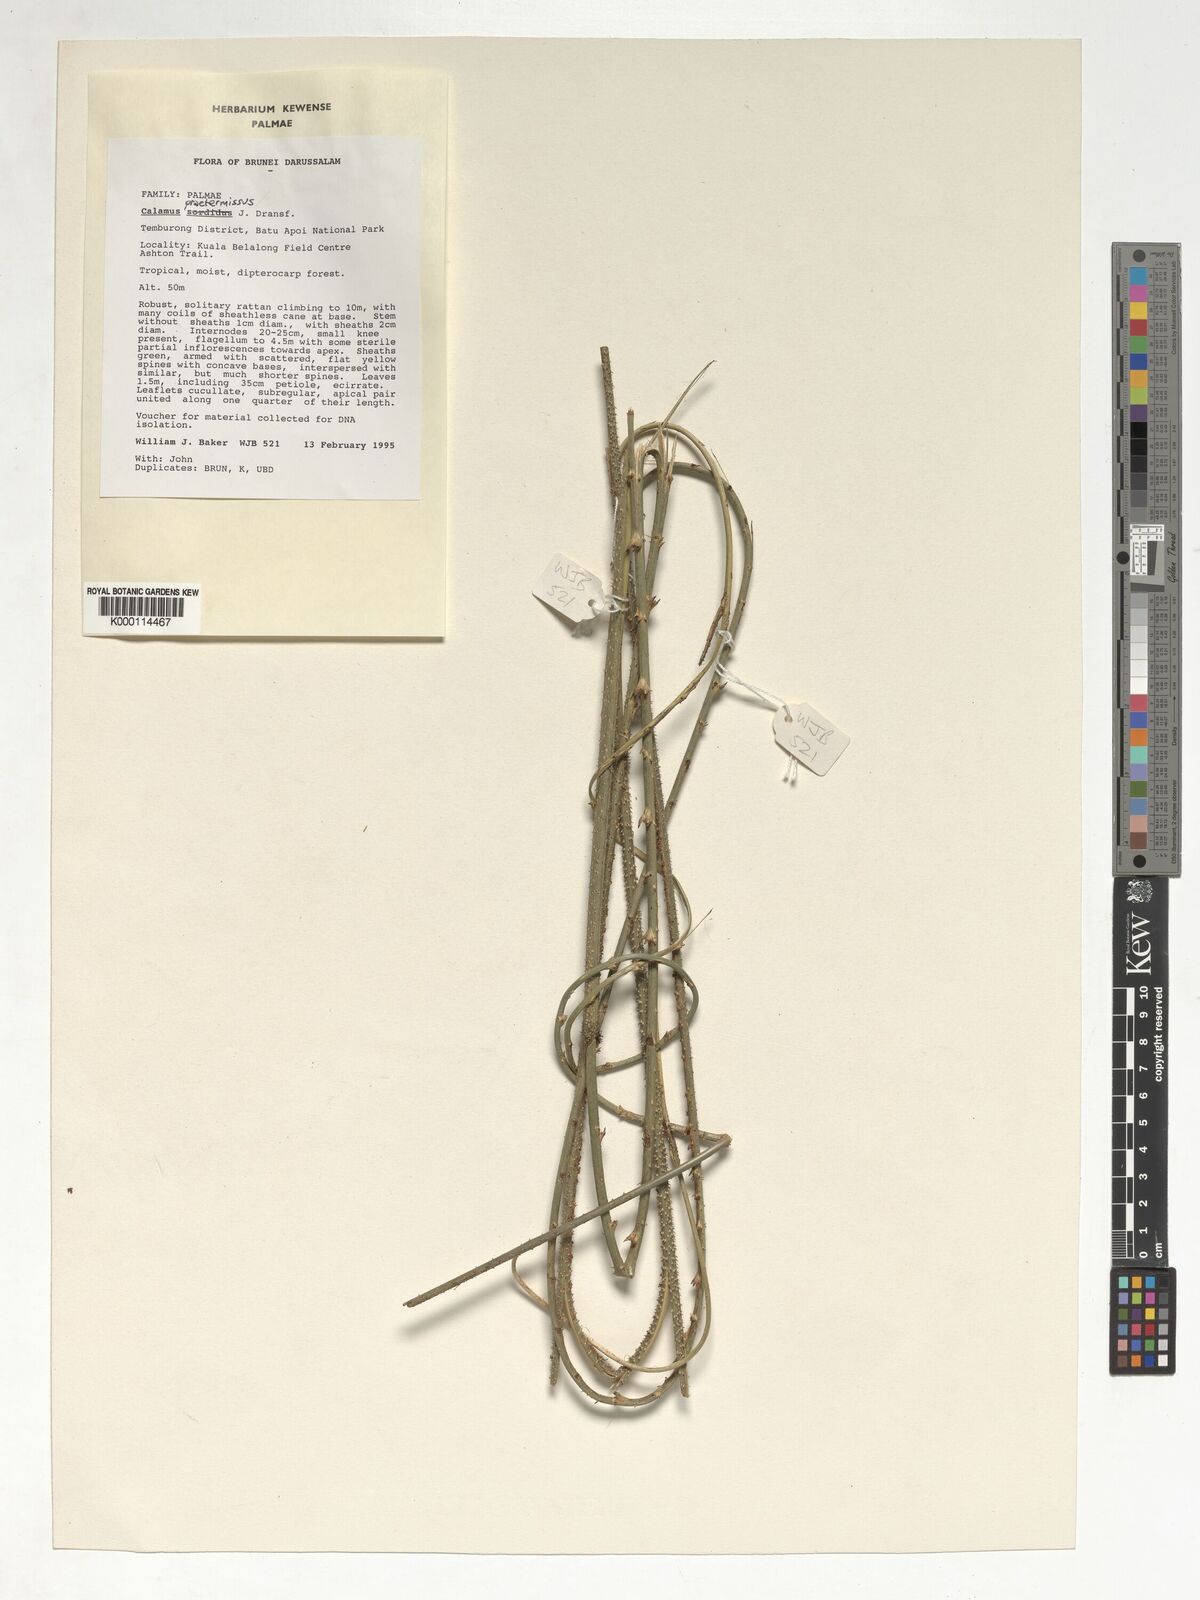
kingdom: Plantae
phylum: Tracheophyta
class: Liliopsida
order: Arecales
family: Arecaceae
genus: Calamus
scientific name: Calamus praetermissus
